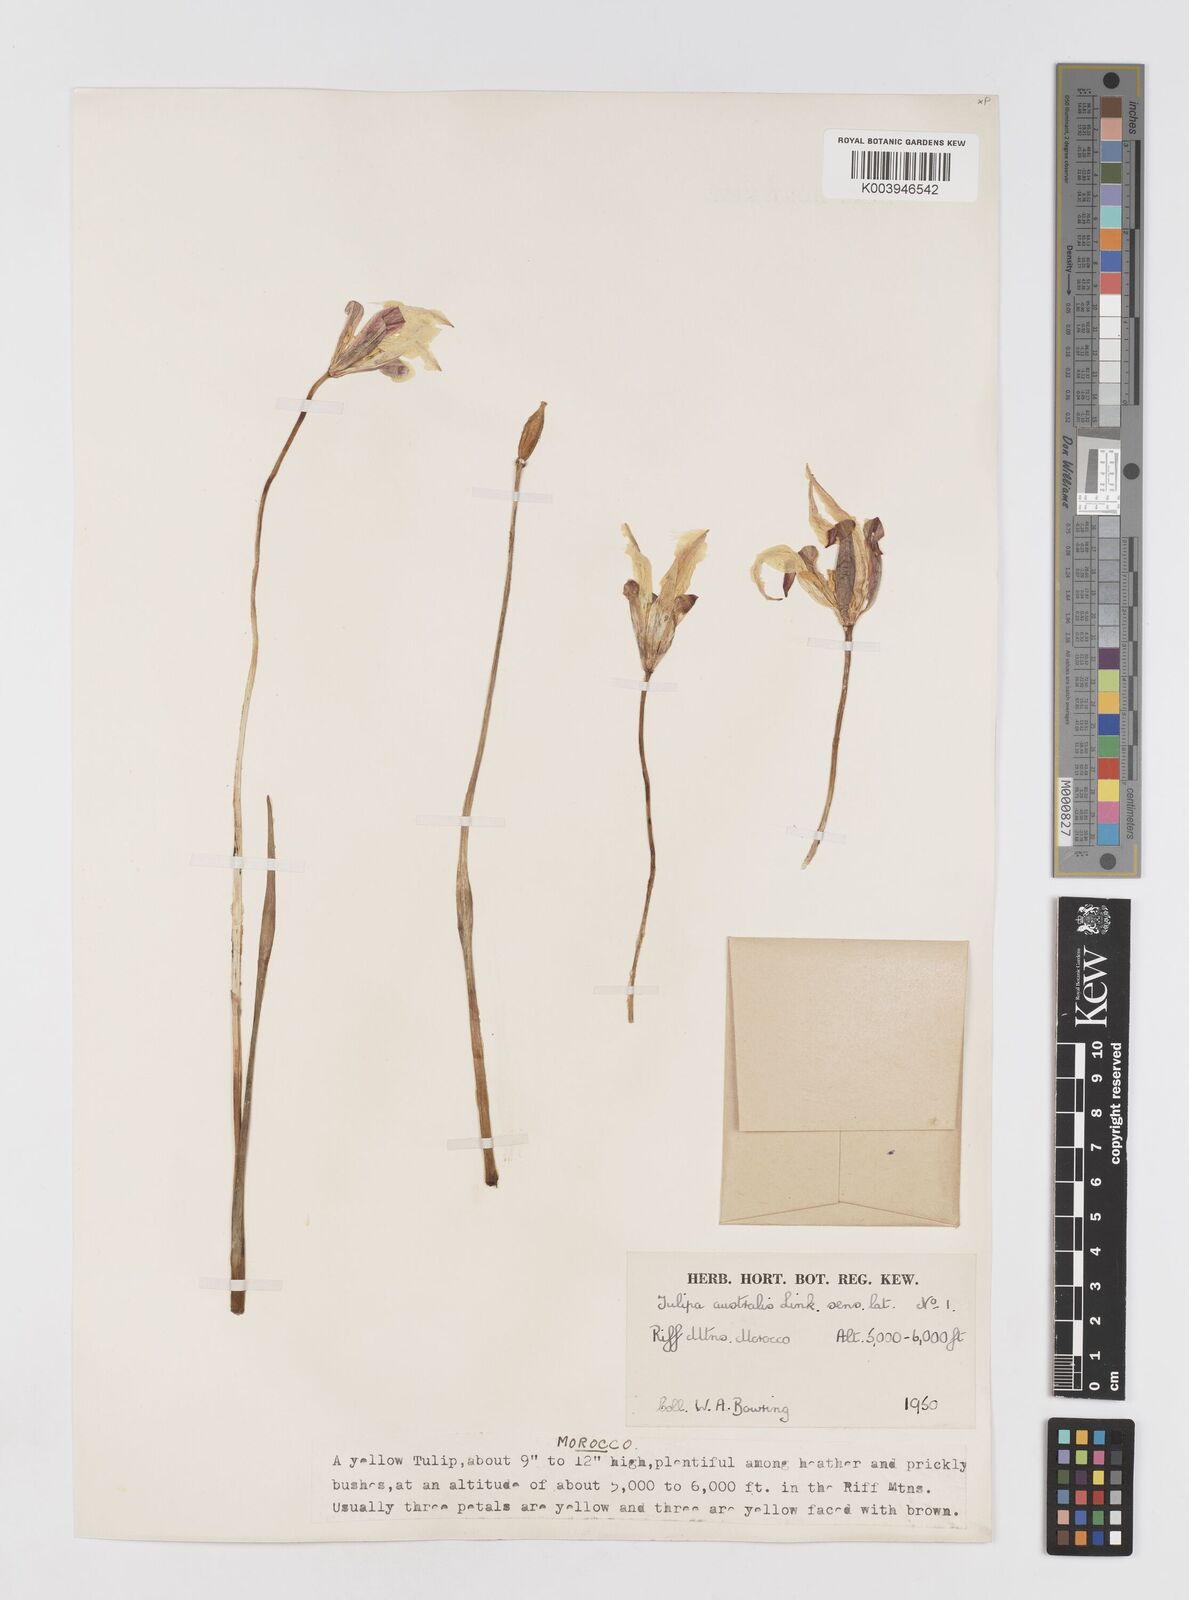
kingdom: Plantae
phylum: Tracheophyta
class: Liliopsida
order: Liliales
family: Liliaceae
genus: Tulipa
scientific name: Tulipa sylvestris
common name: Wild tulip
